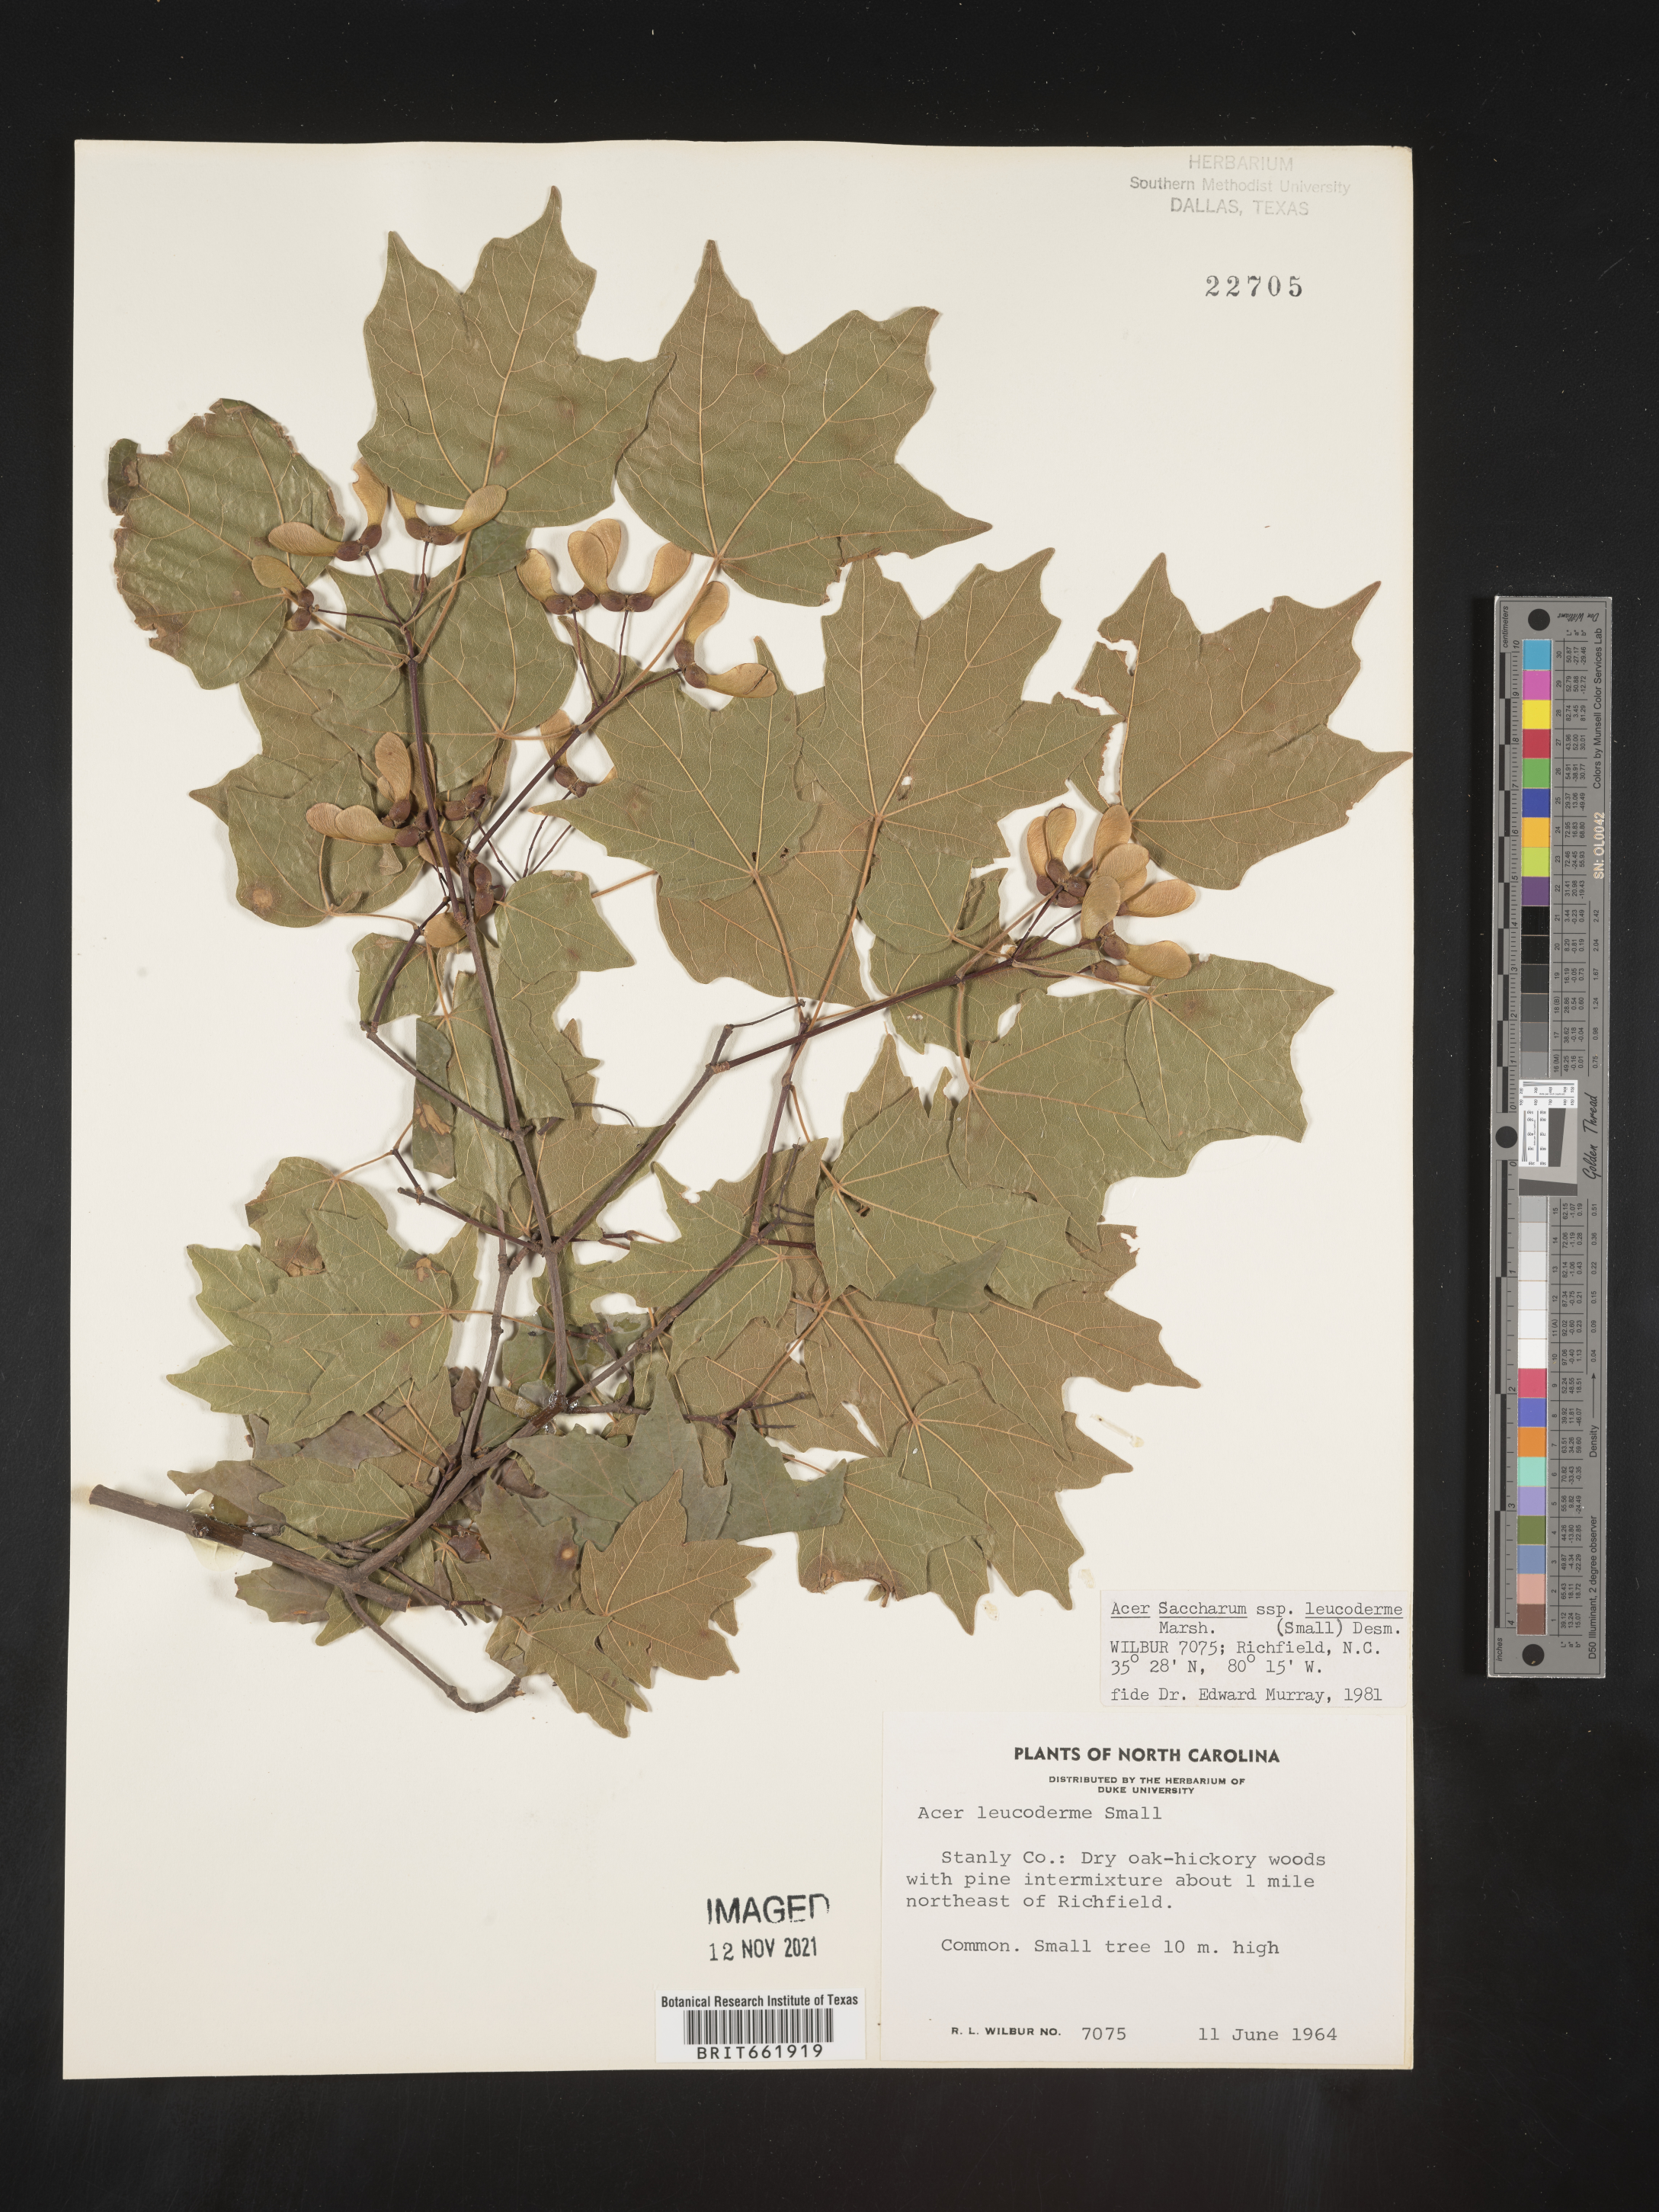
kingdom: Plantae
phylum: Tracheophyta
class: Magnoliopsida
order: Sapindales
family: Sapindaceae
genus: Acer
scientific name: Acer leucoderme
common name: Chalk maple
